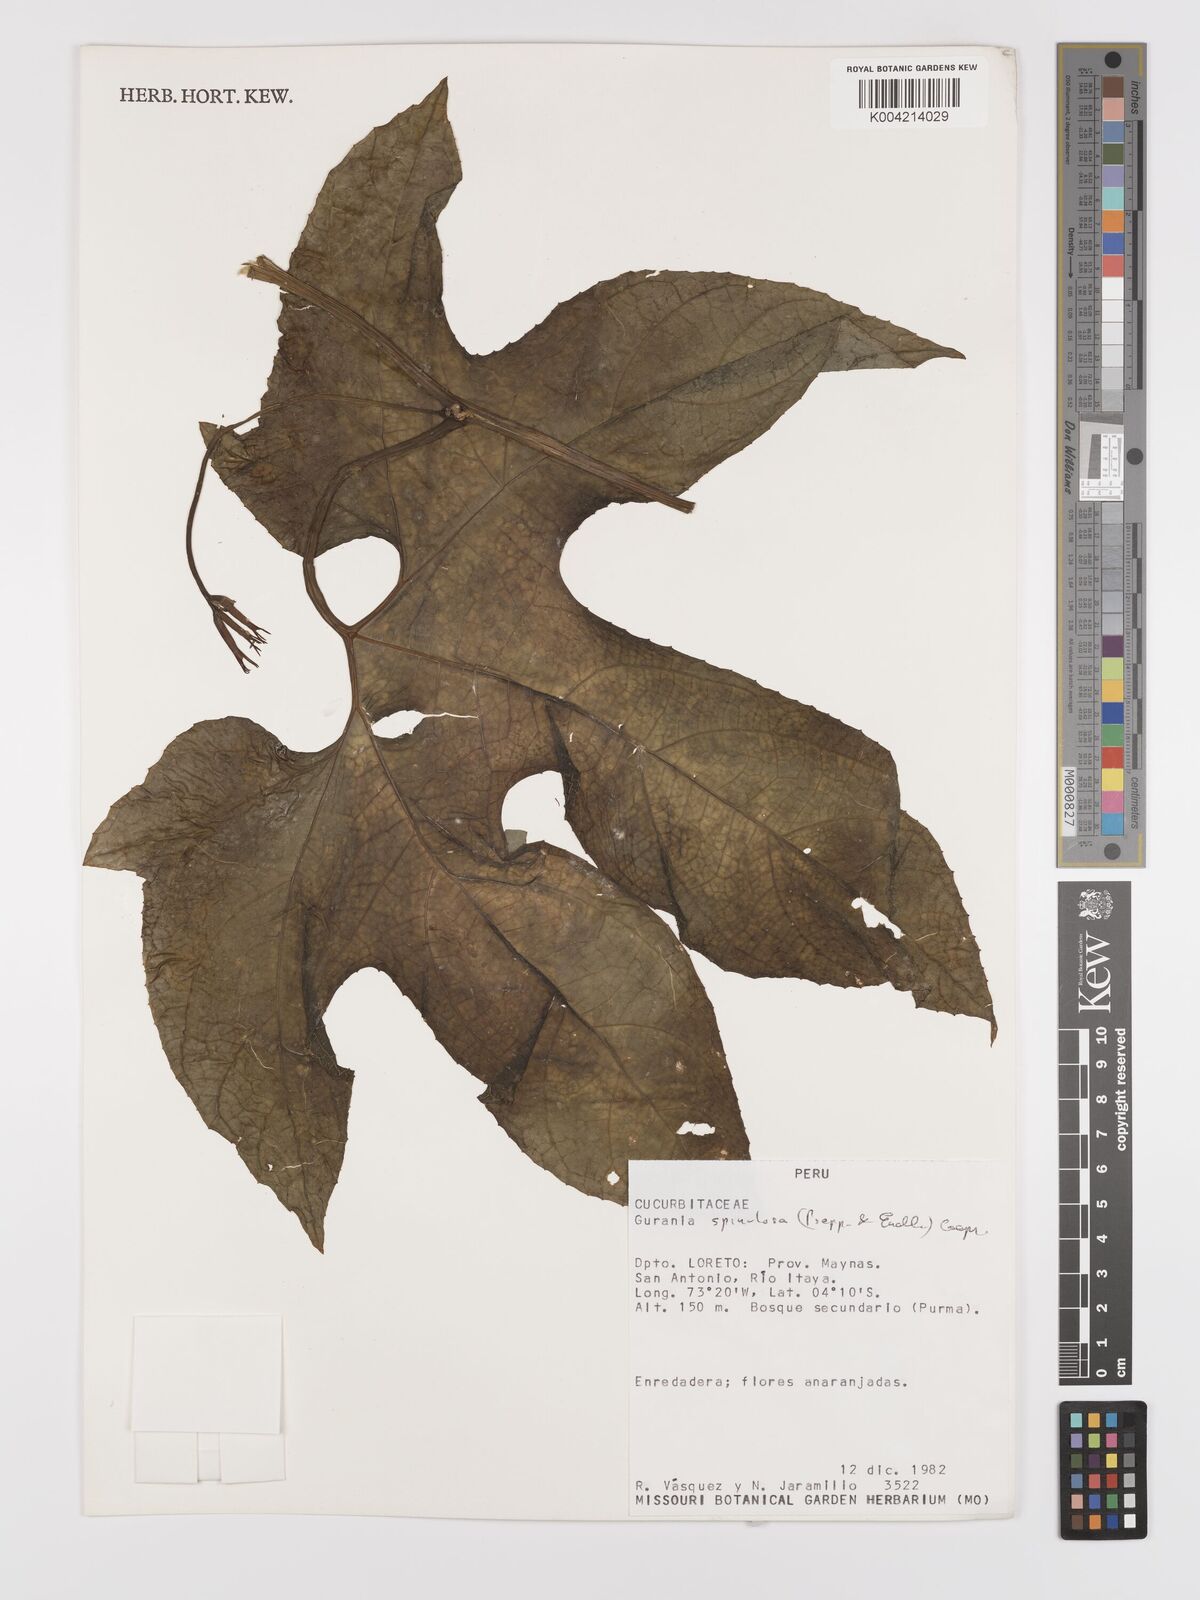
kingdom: Plantae
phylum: Tracheophyta
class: Magnoliopsida
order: Cucurbitales
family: Cucurbitaceae
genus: Gurania
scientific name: Gurania lobata
